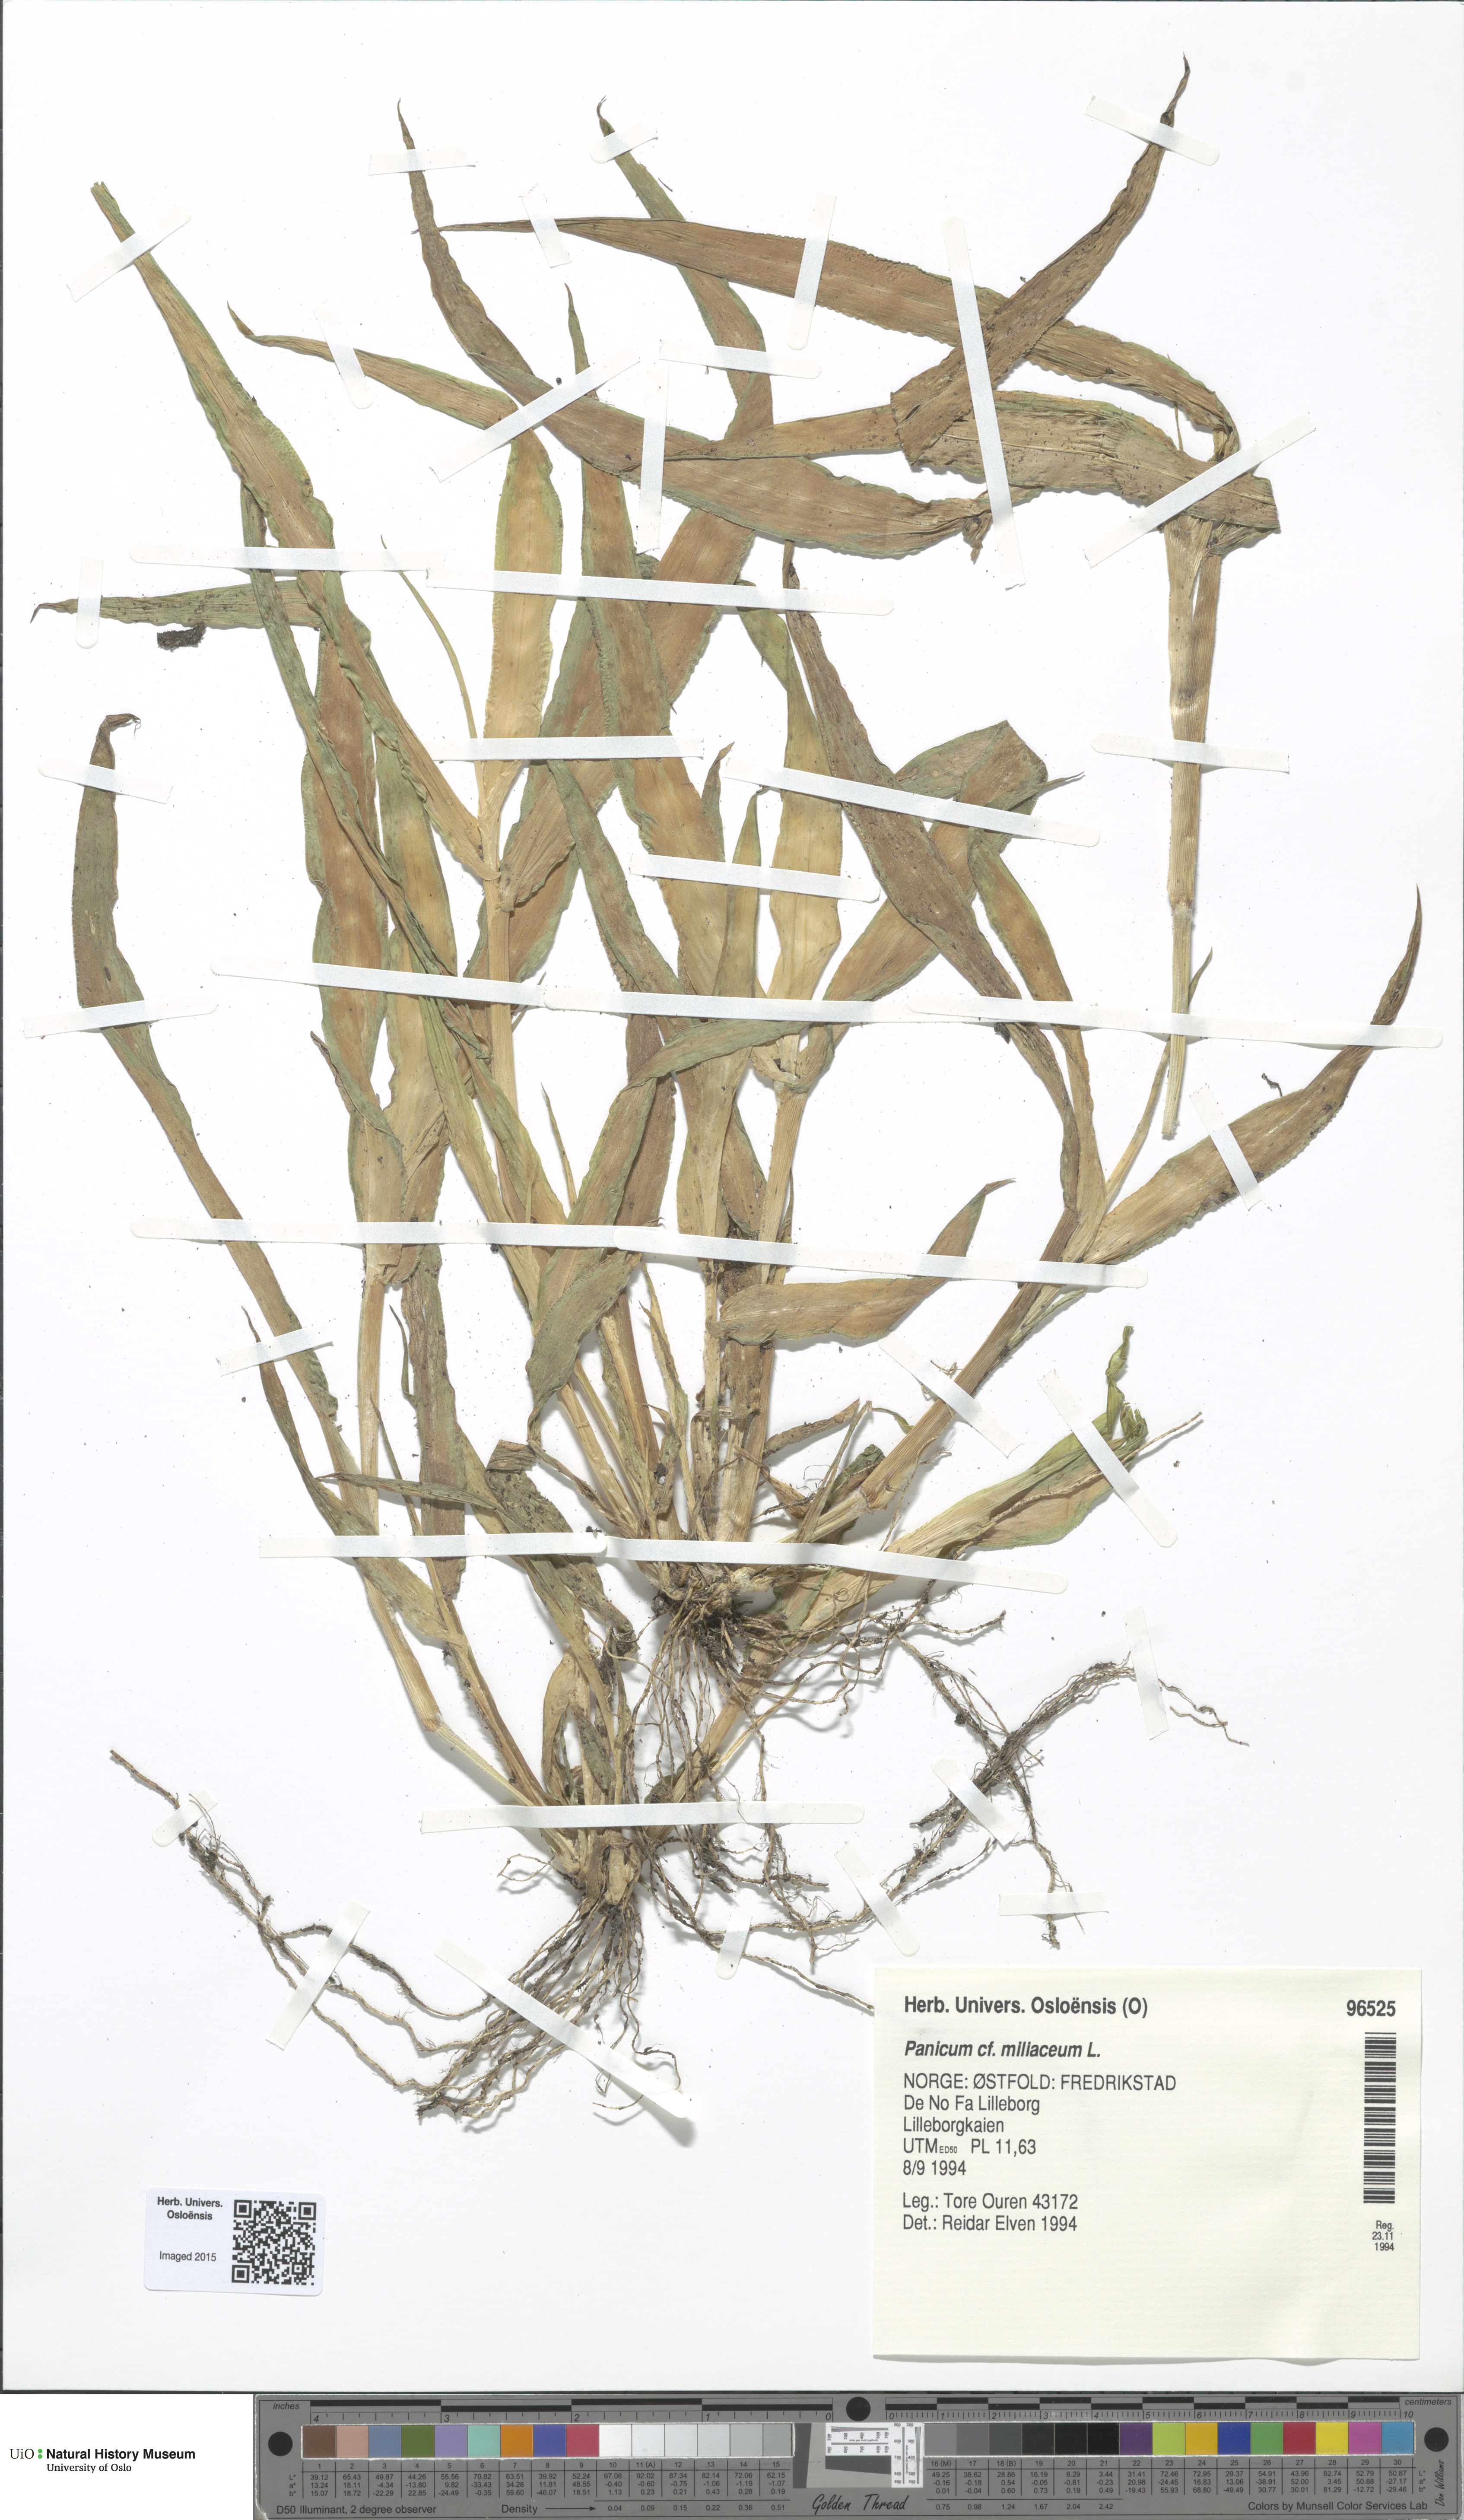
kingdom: Plantae
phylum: Tracheophyta
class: Liliopsida
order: Poales
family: Poaceae
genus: Panicum
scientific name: Panicum miliaceum
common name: Common millet
